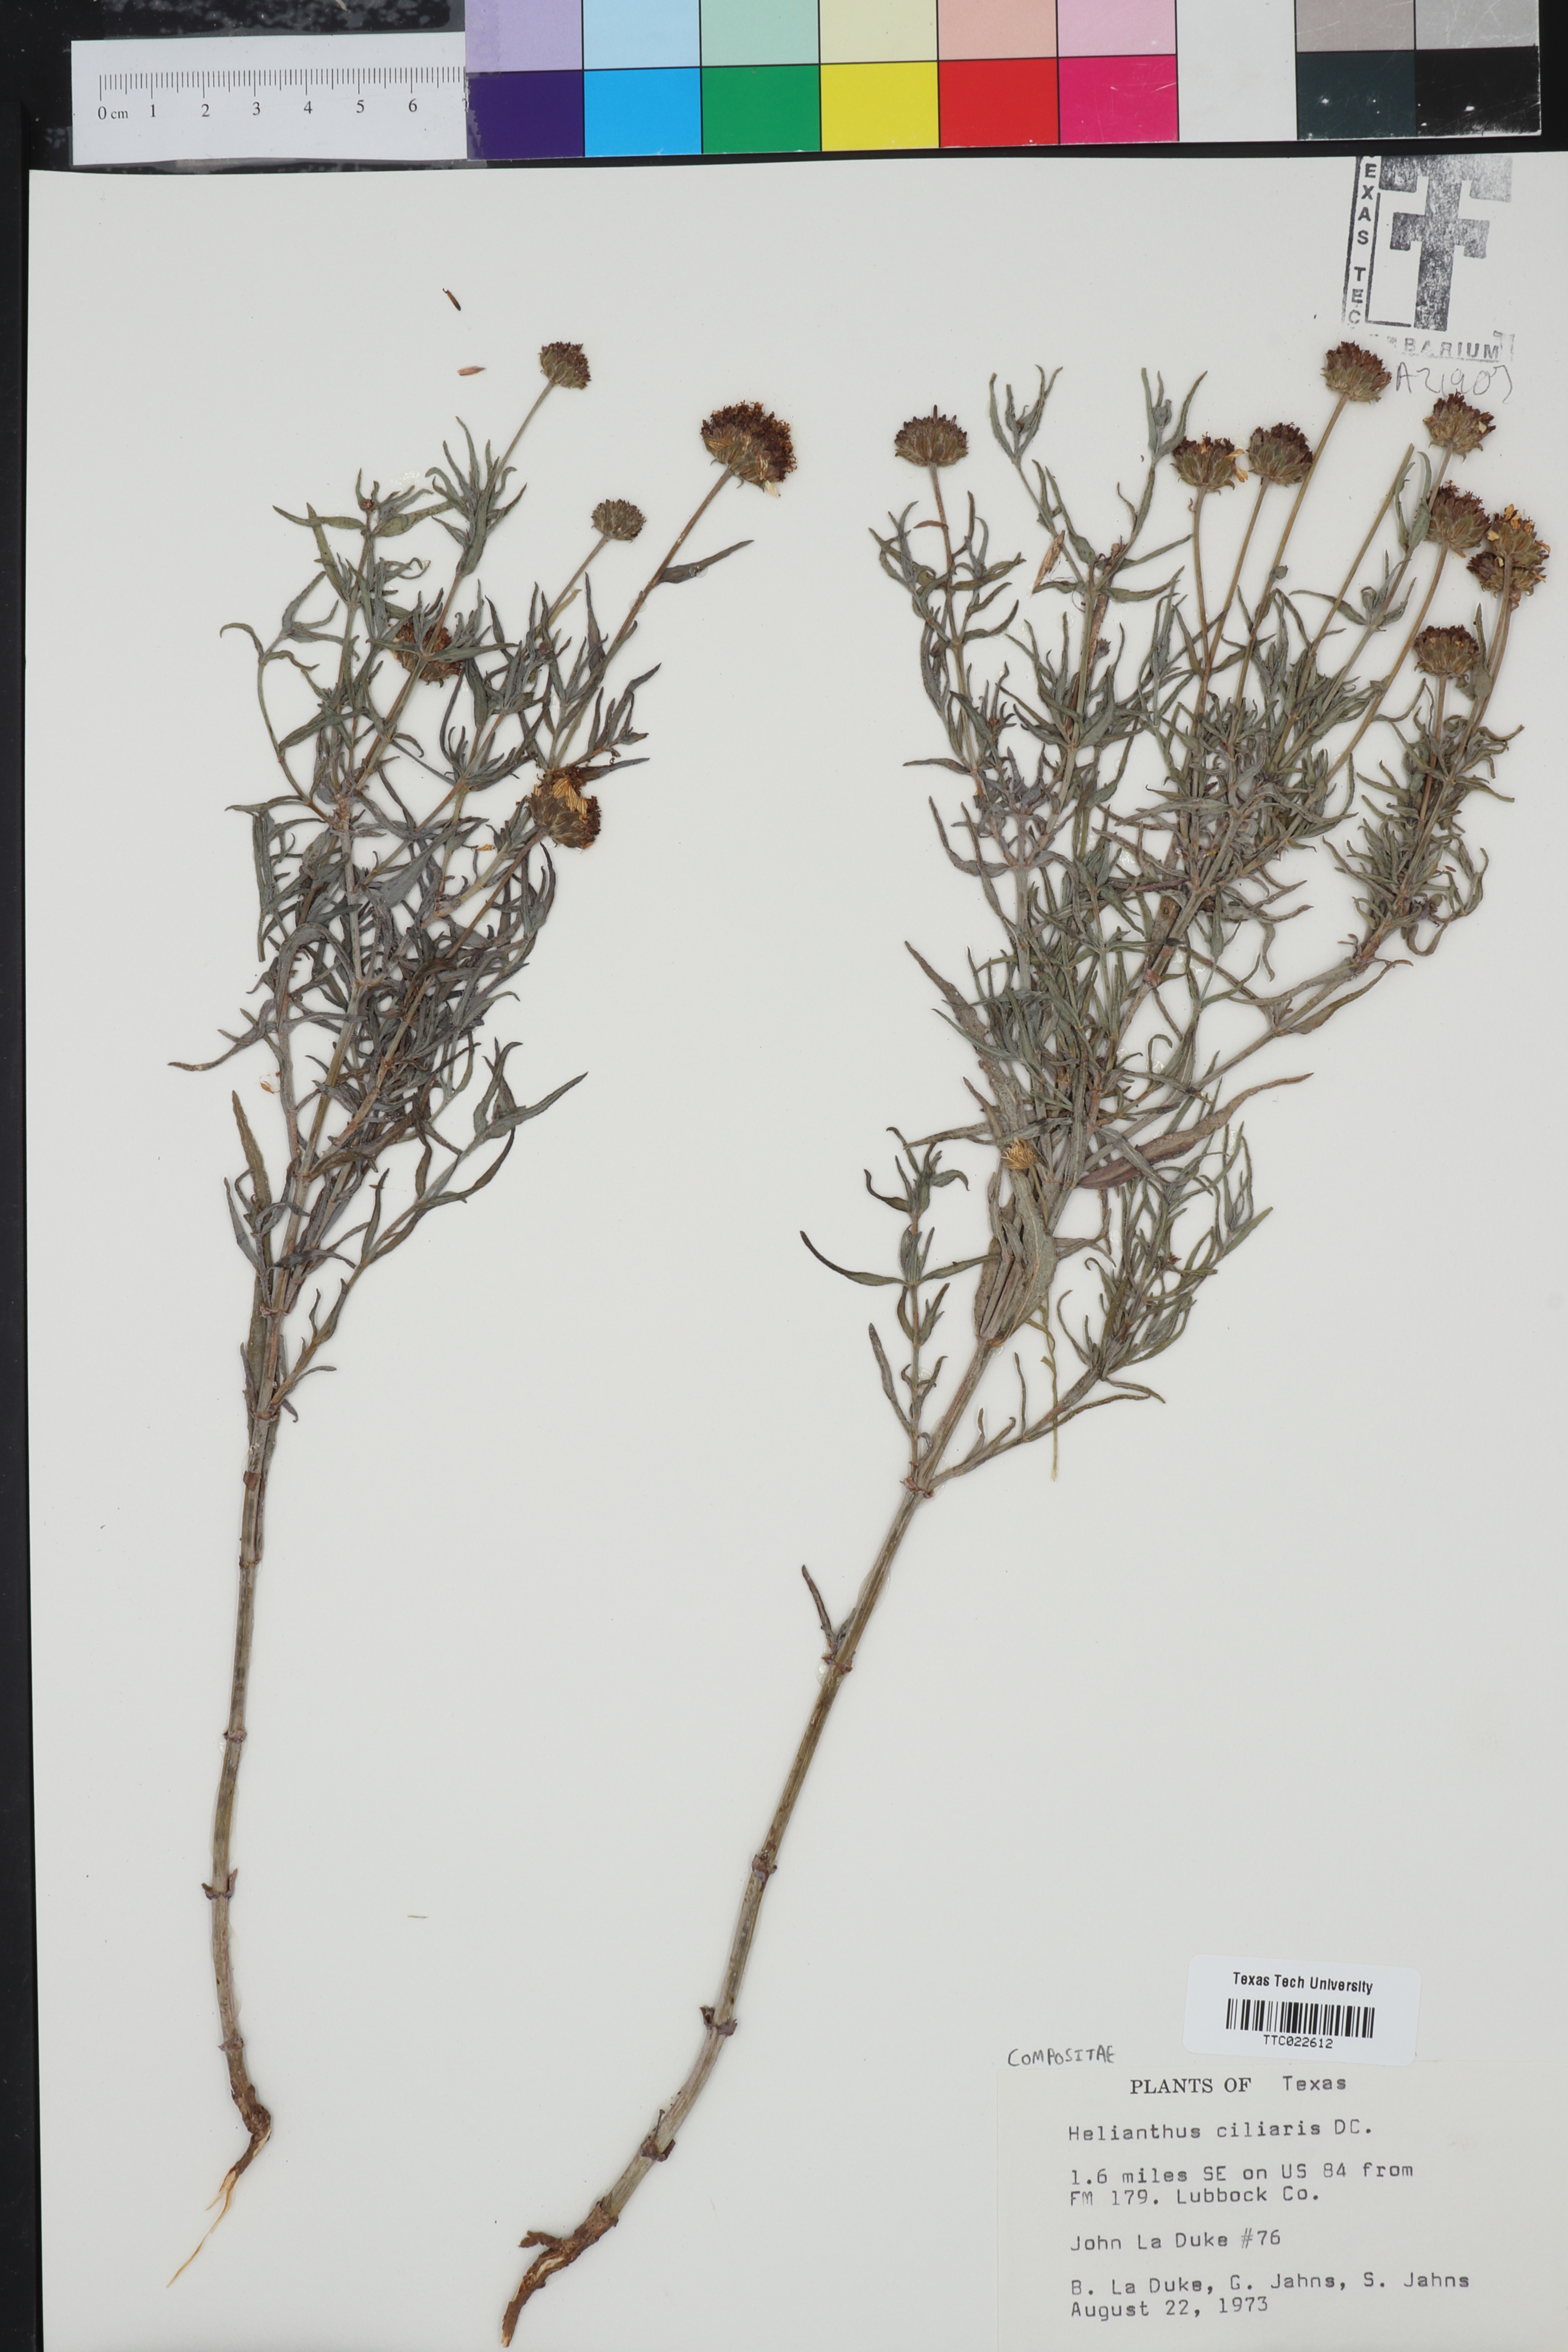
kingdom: Plantae
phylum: Tracheophyta
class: Magnoliopsida
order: Asterales
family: Asteraceae
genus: Helianthus
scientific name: Helianthus ciliaris
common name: Texas blueweed
